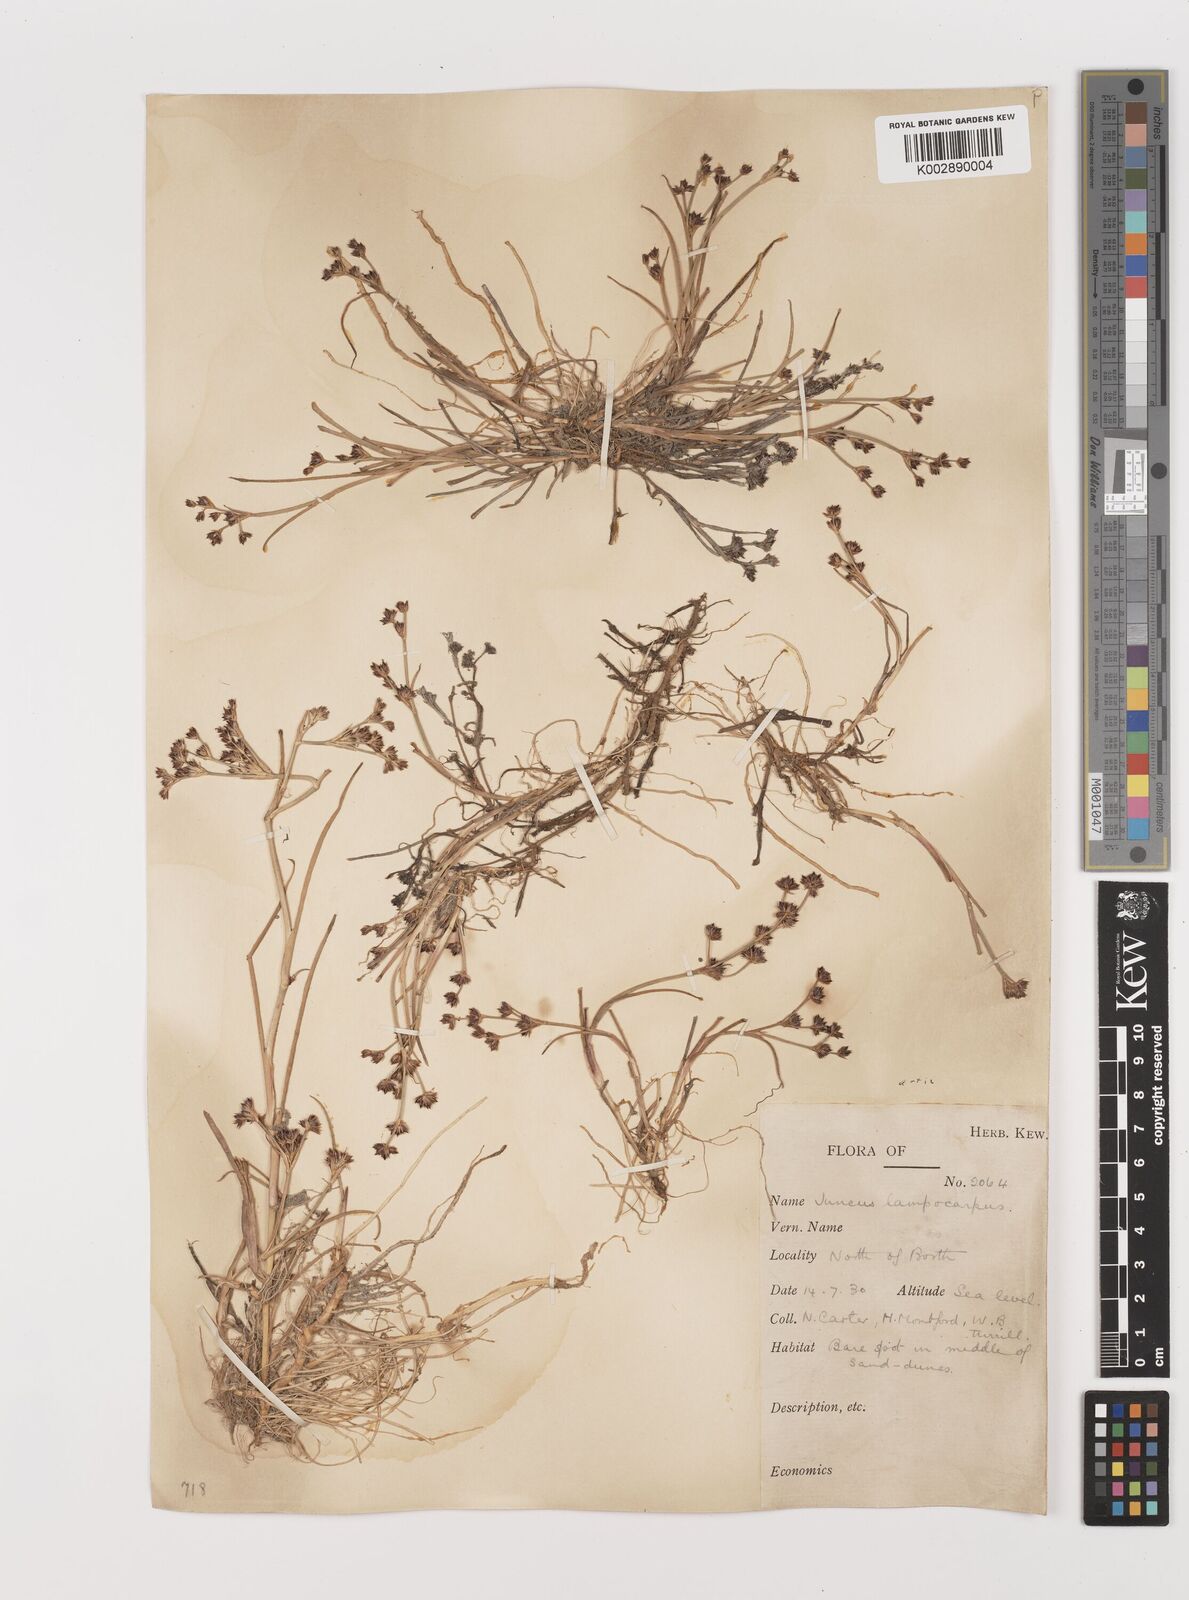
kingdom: Plantae
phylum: Tracheophyta
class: Liliopsida
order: Poales
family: Juncaceae
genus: Juncus
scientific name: Juncus articulatus
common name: Jointed rush
